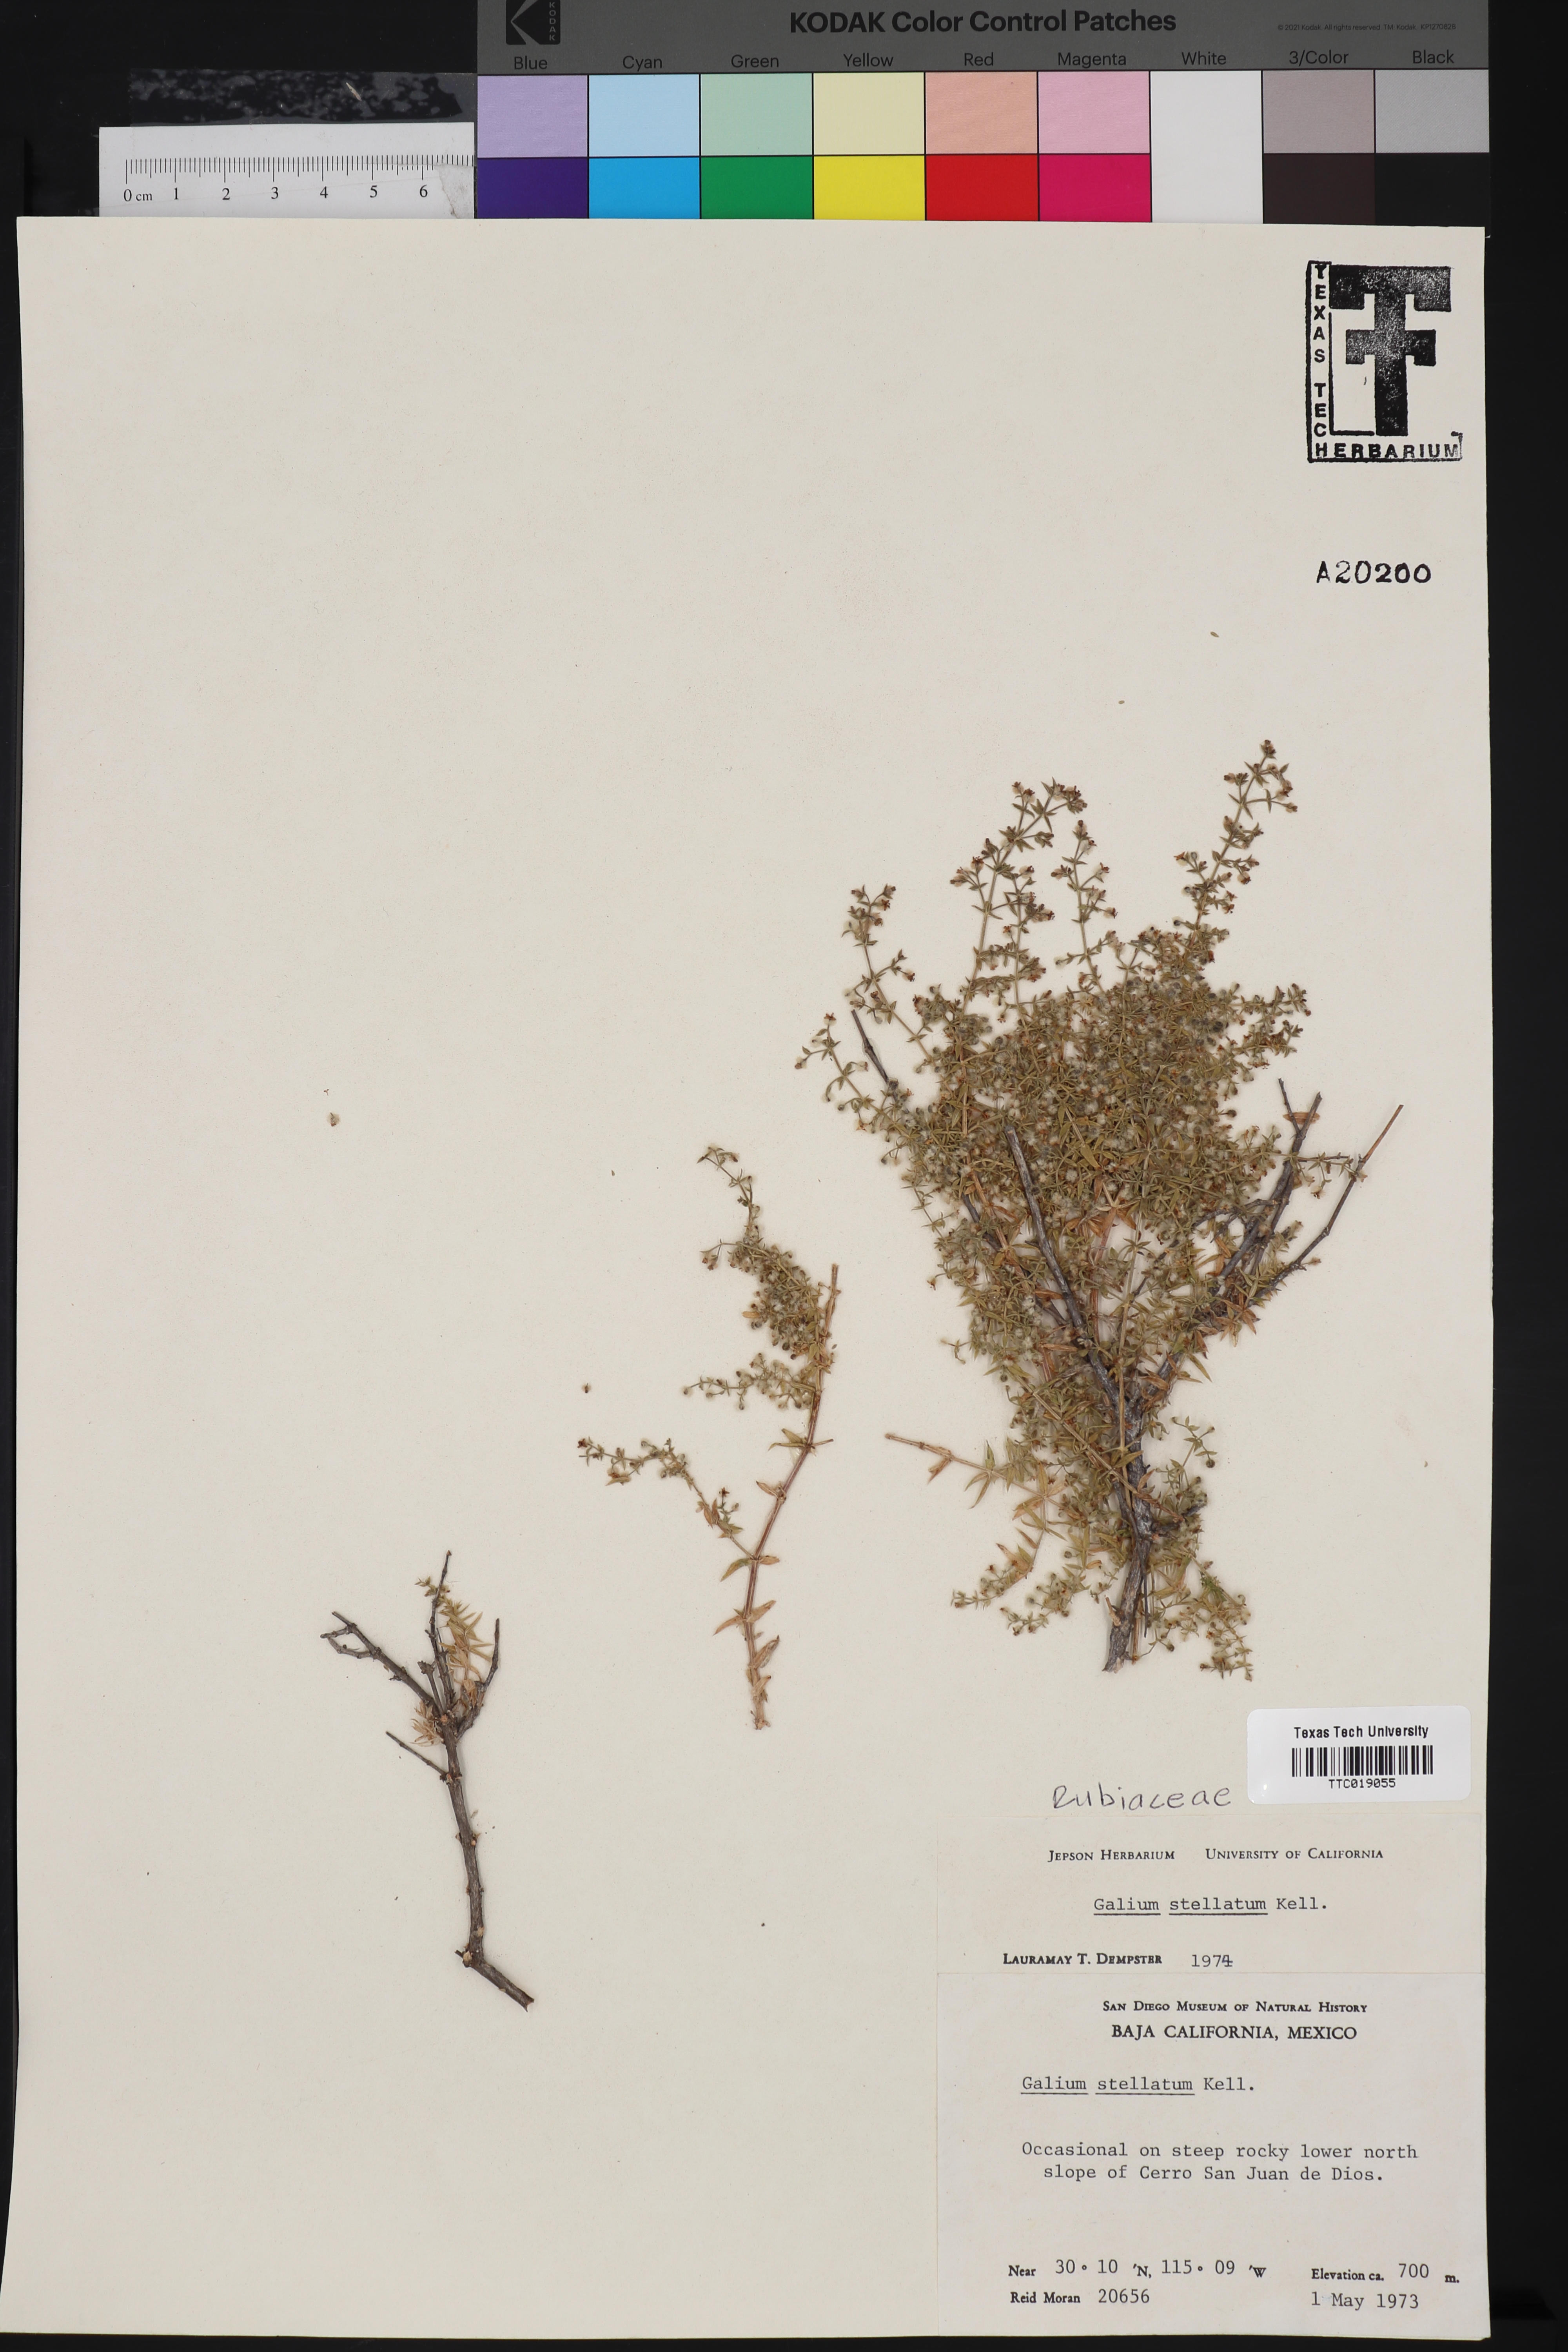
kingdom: Plantae
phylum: Tracheophyta
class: Magnoliopsida
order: Gentianales
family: Rubiaceae
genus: Galium
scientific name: Galium stellatum
